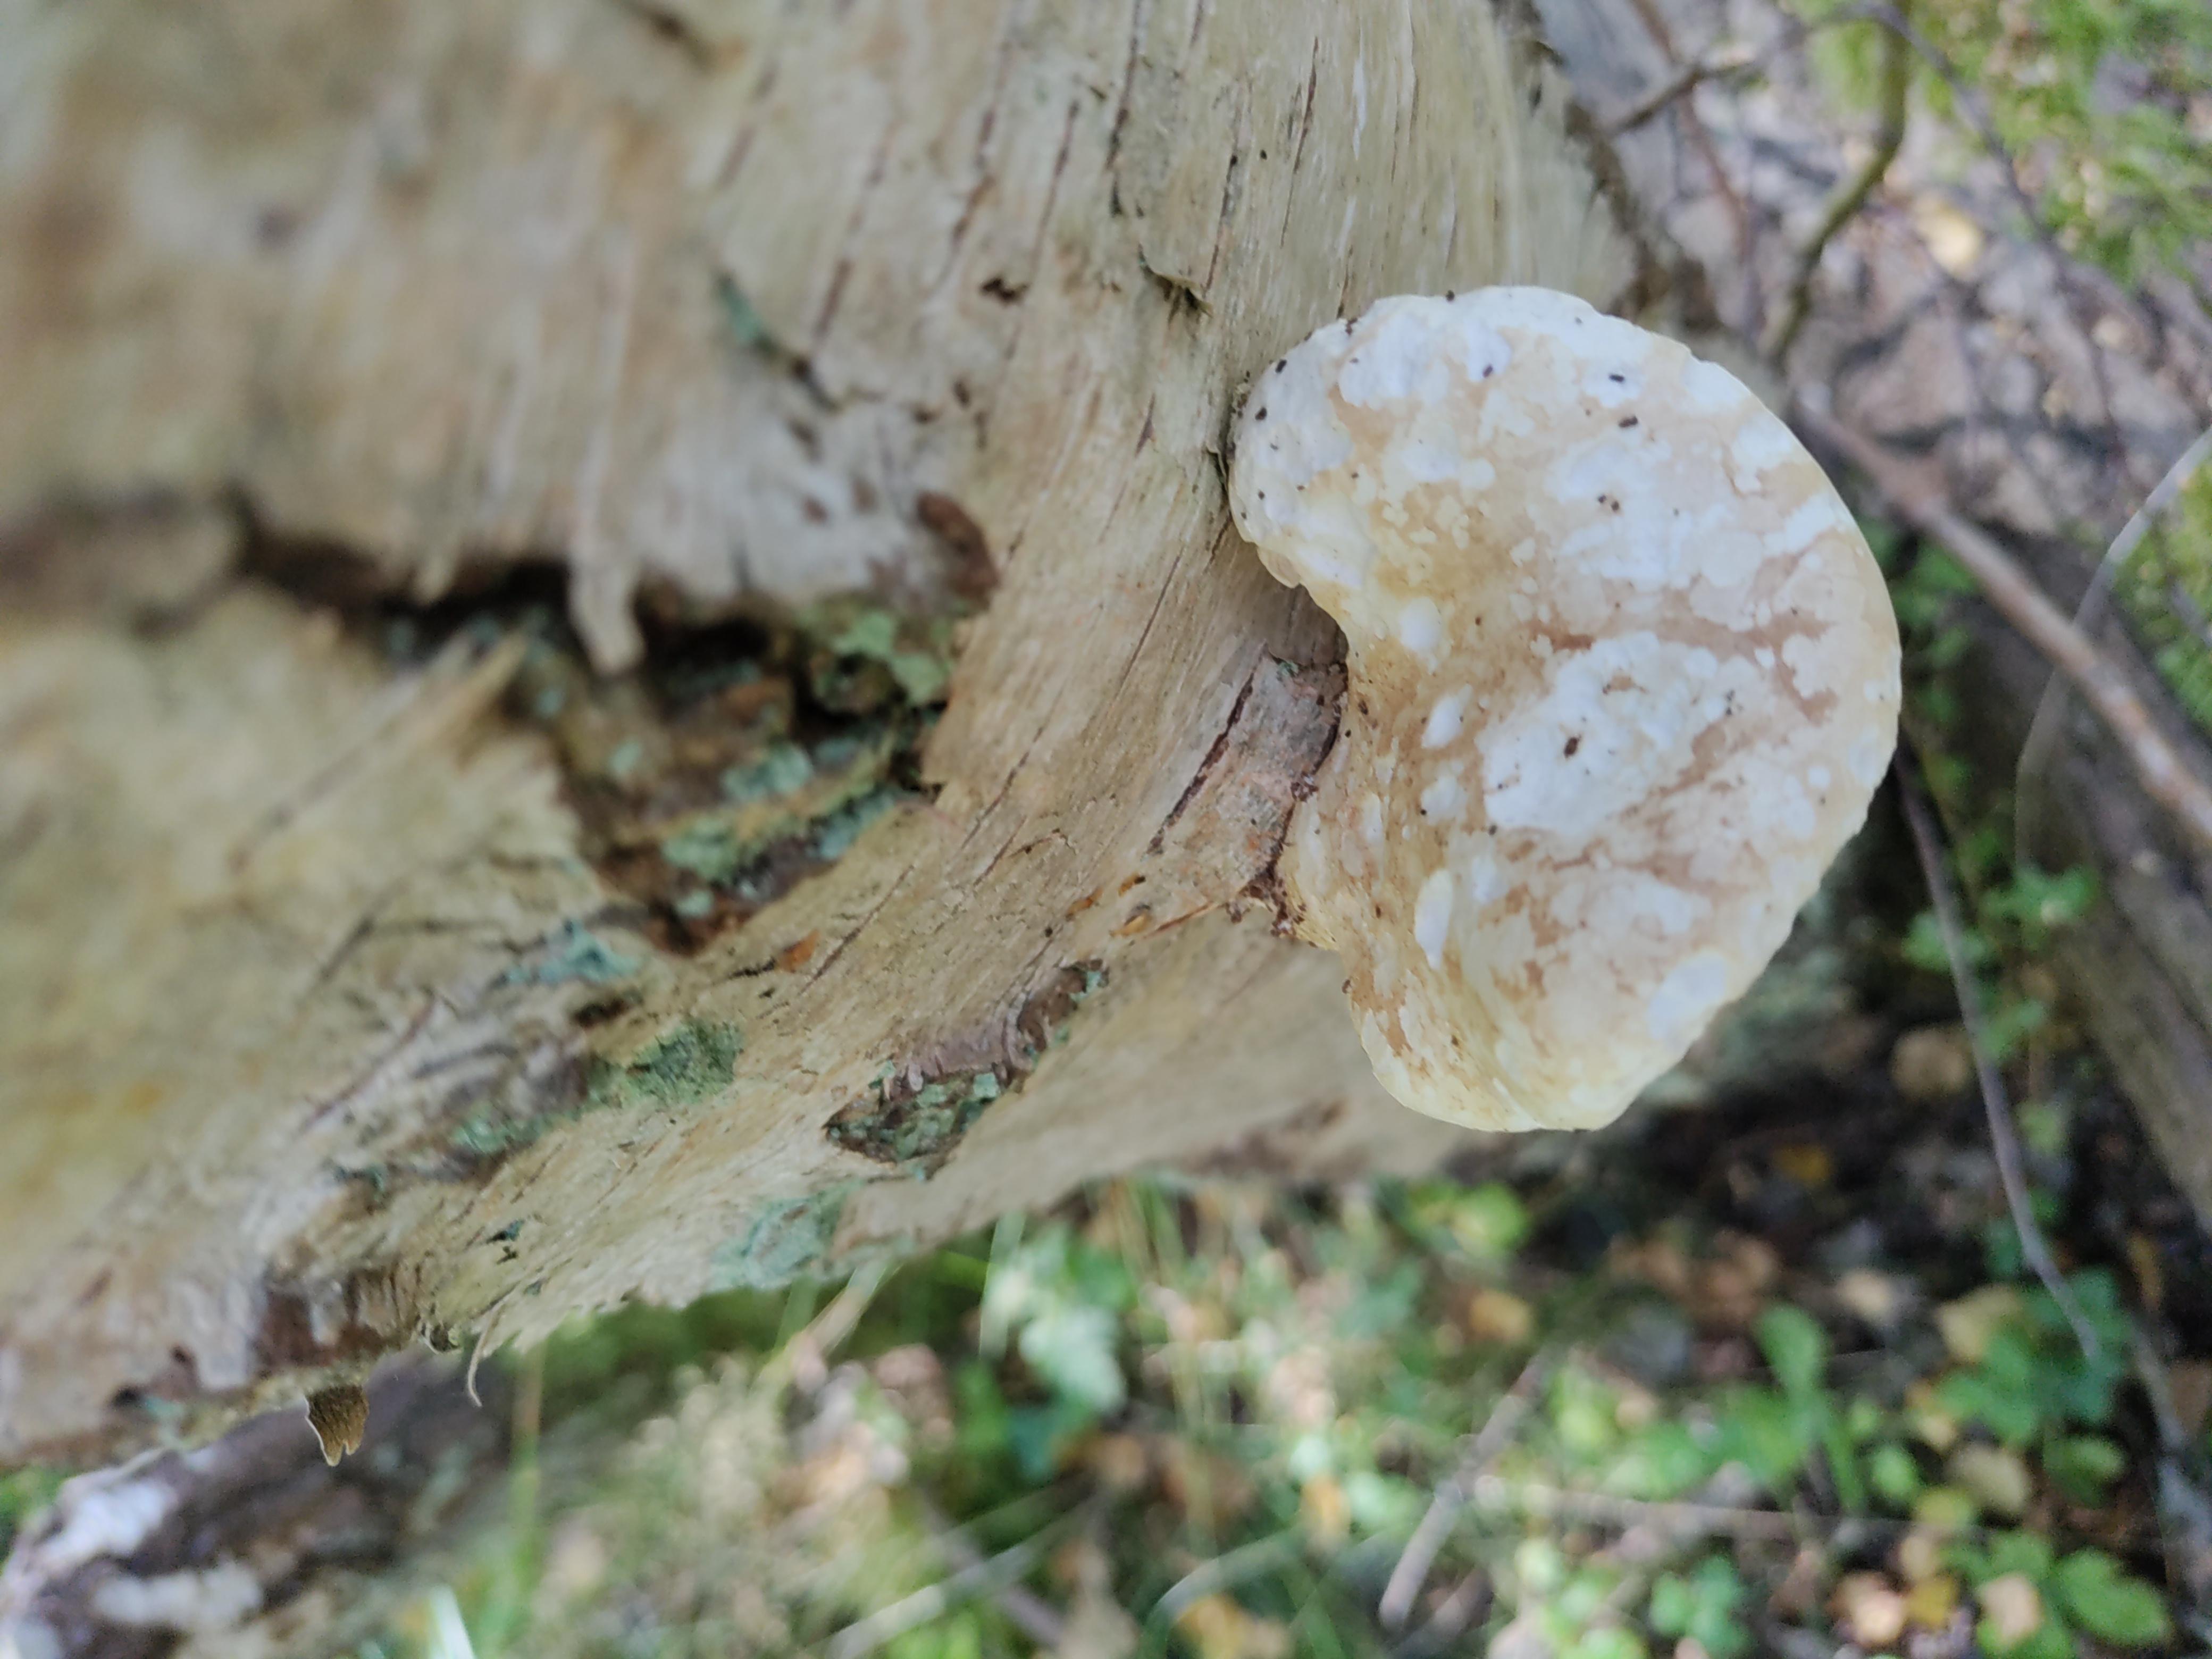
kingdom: Fungi
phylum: Basidiomycota
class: Agaricomycetes
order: Polyporales
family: Fomitopsidaceae
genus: Fomitopsis
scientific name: Fomitopsis betulina
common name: birkeporesvamp
